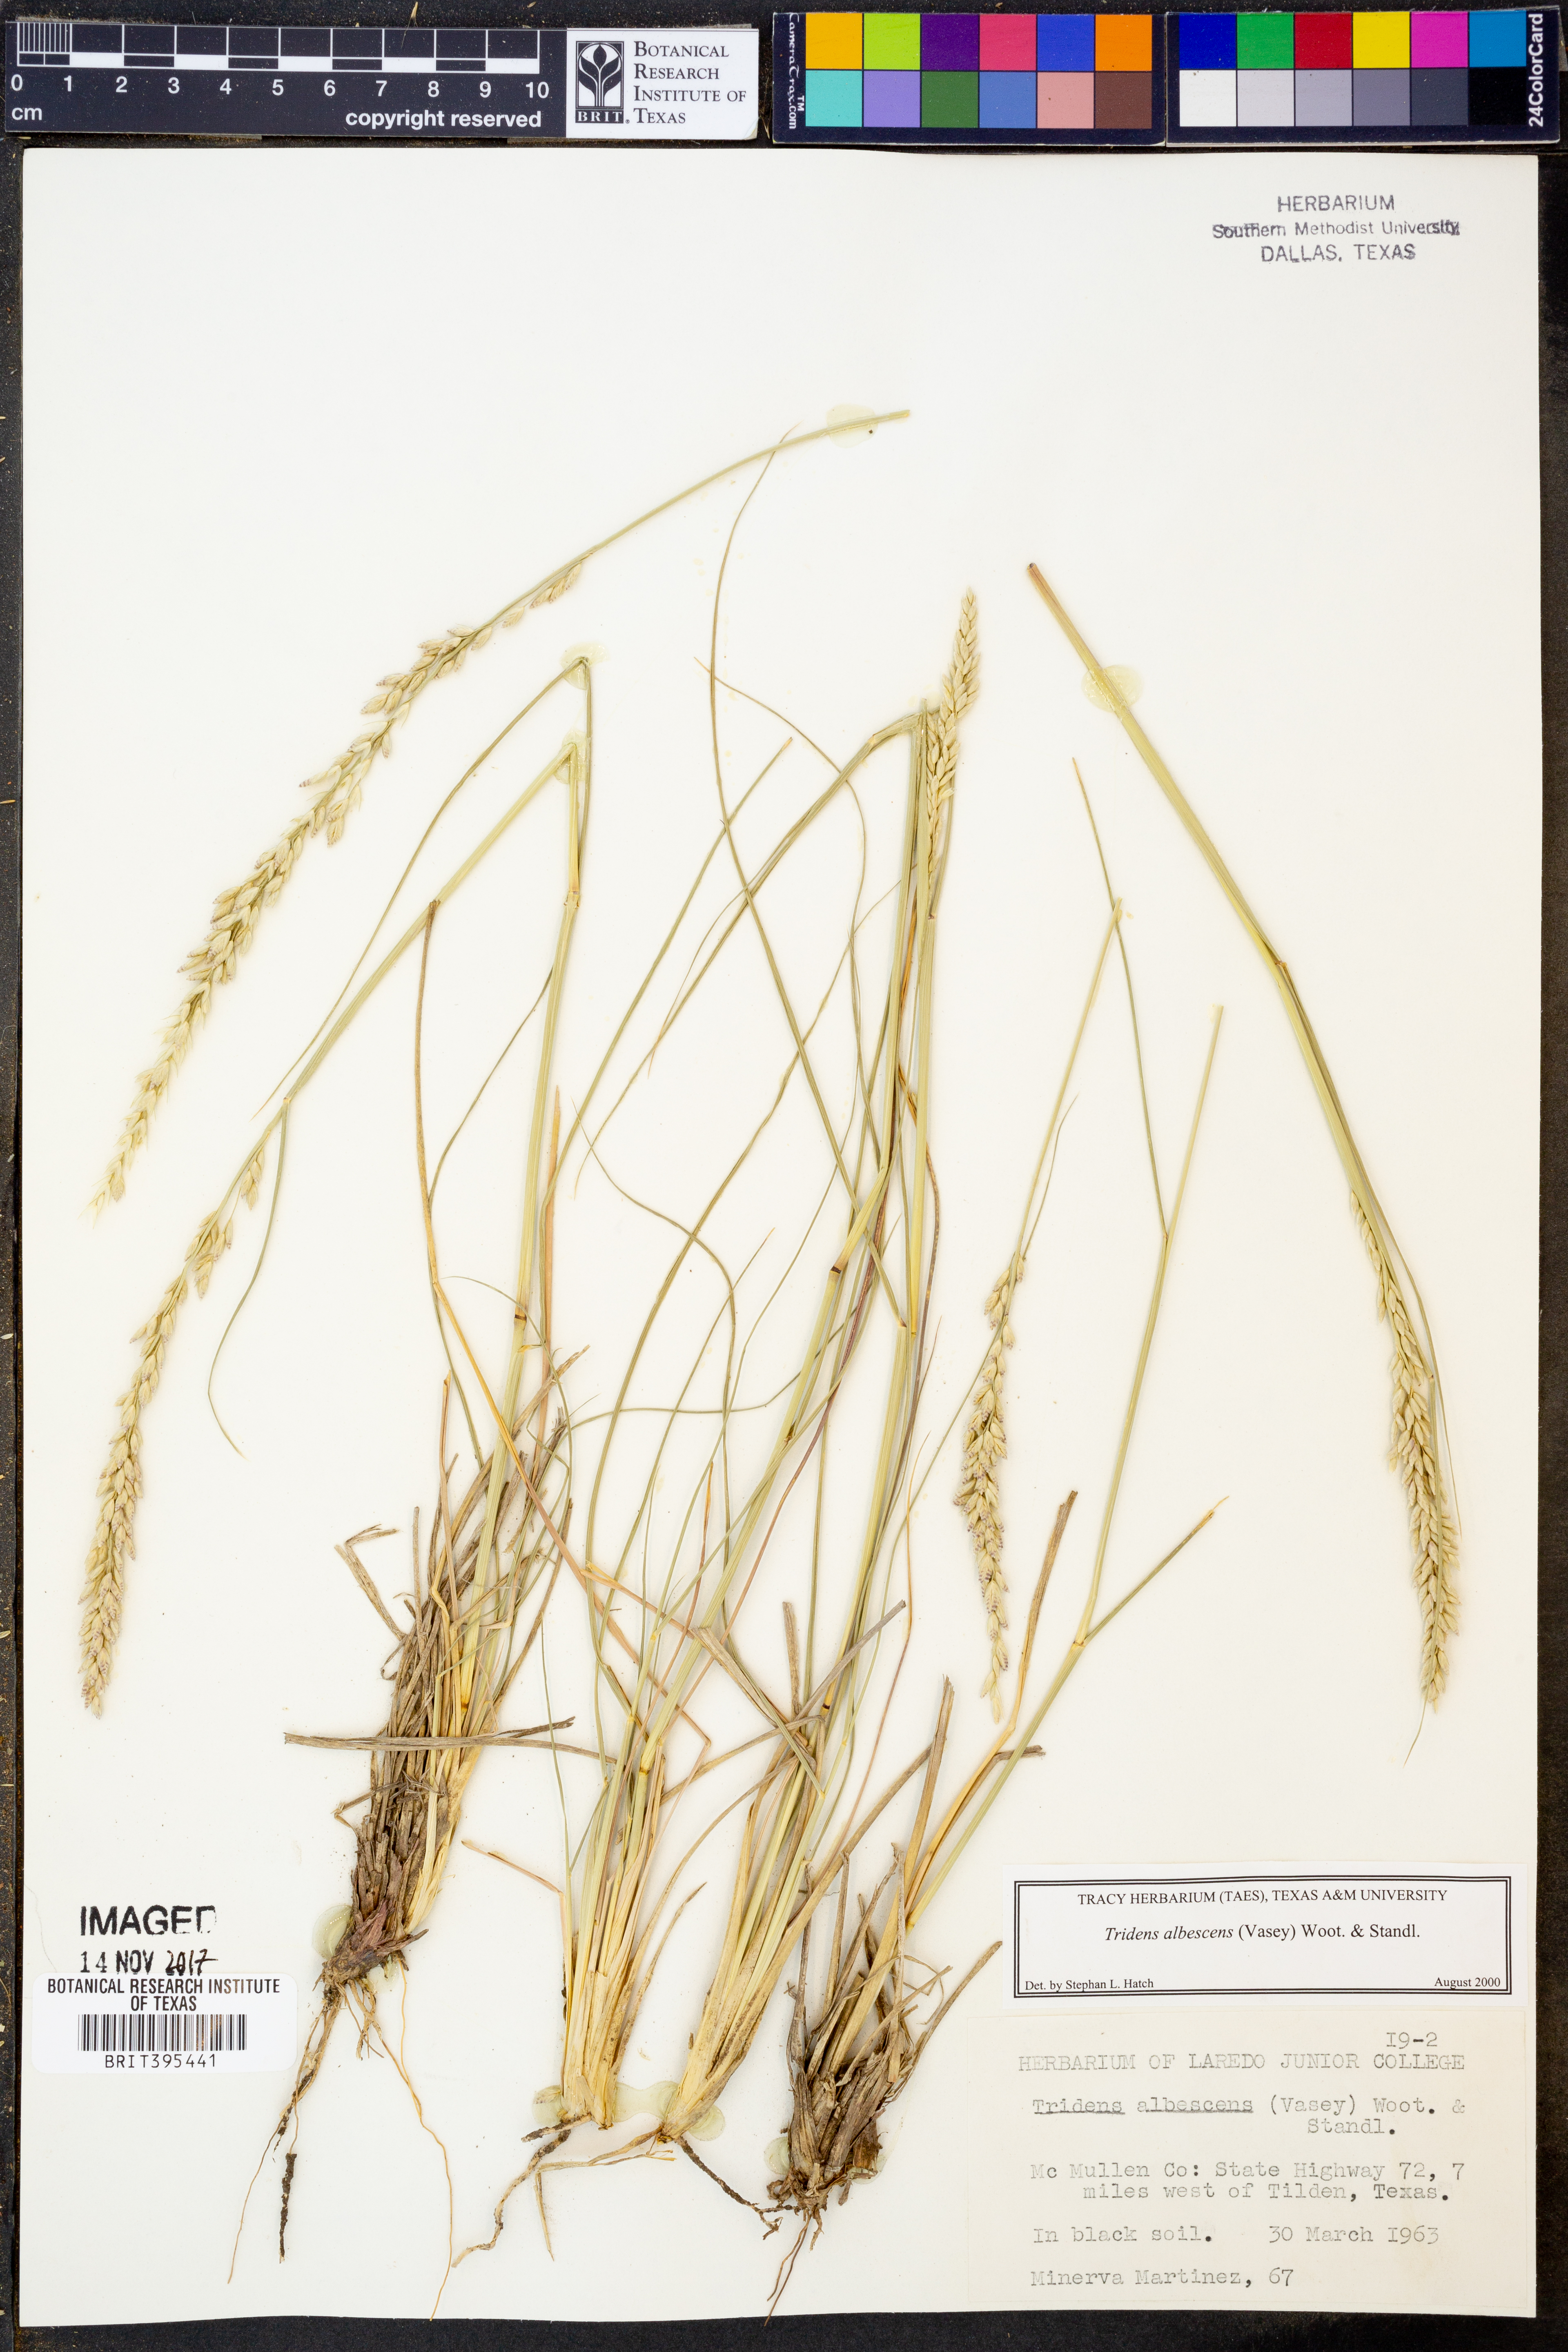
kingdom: Plantae
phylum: Tracheophyta
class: Liliopsida
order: Poales
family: Poaceae
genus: Tridens
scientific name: Tridens albescens
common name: White tridens
